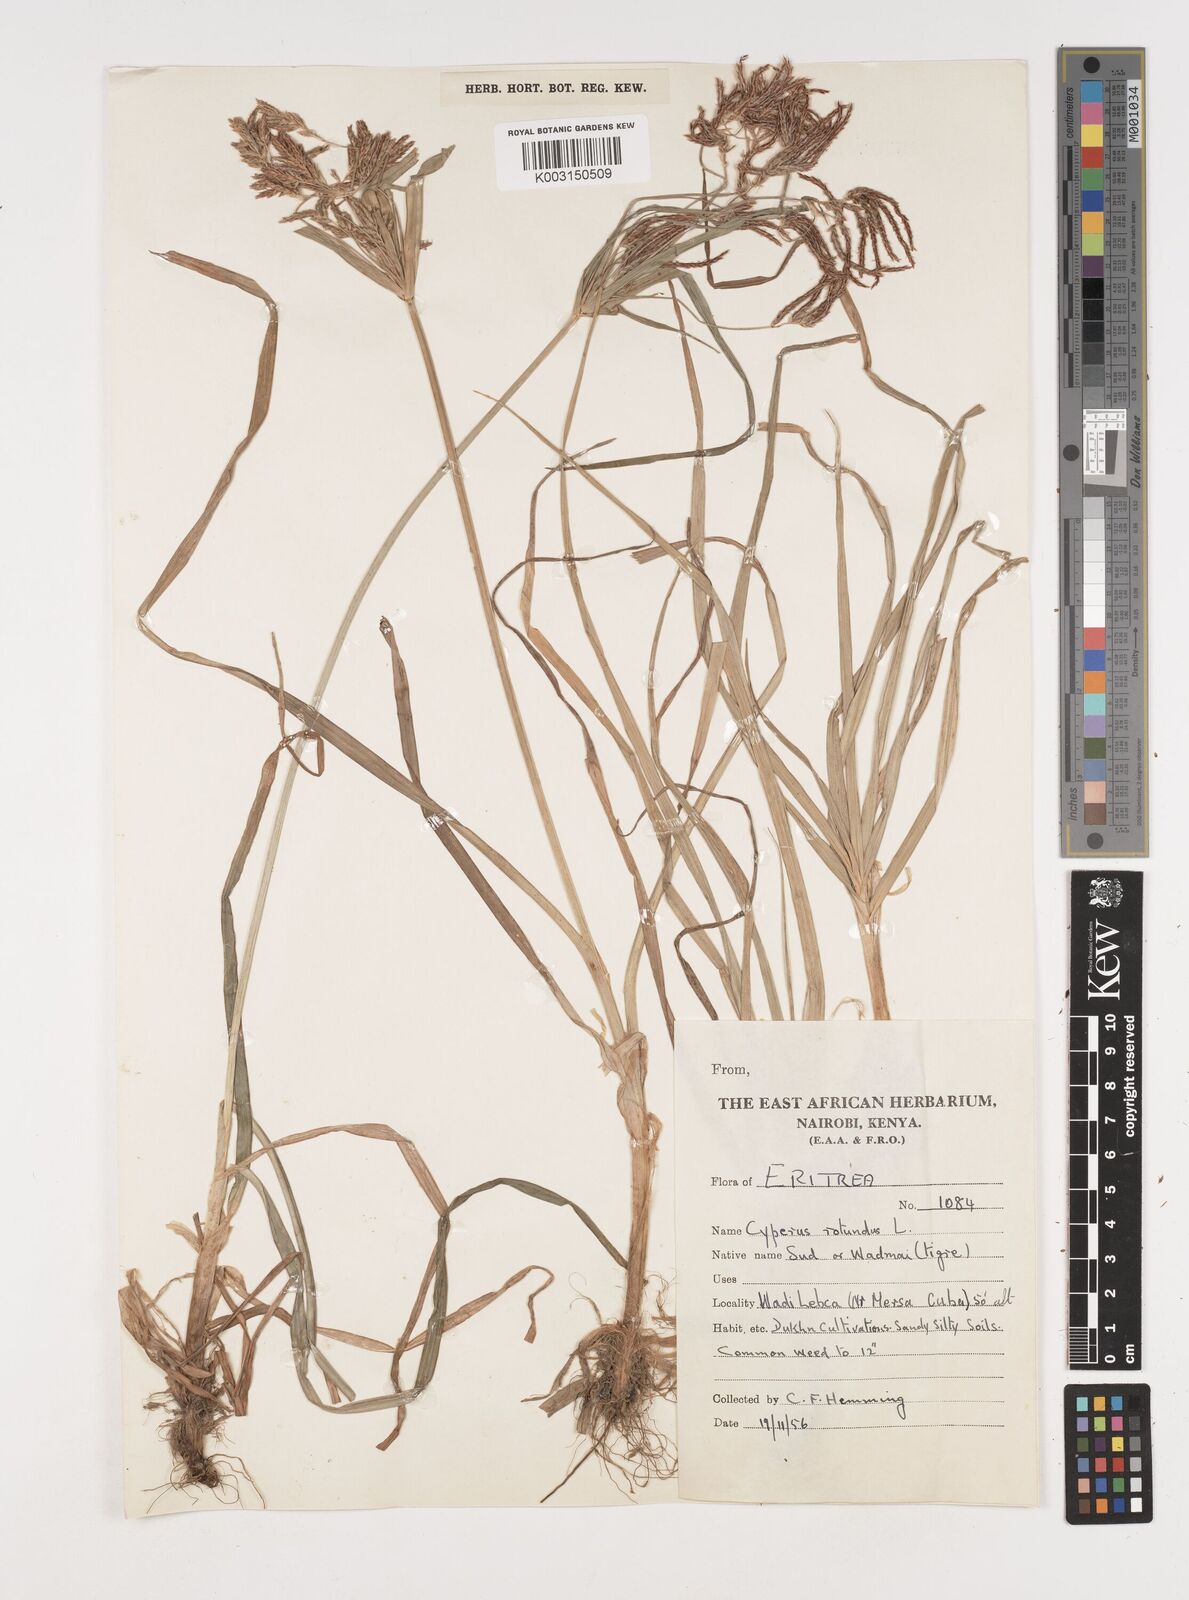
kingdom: Plantae
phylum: Tracheophyta
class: Liliopsida
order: Poales
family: Cyperaceae
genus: Cyperus
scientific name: Cyperus rotundus
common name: Nutgrass
